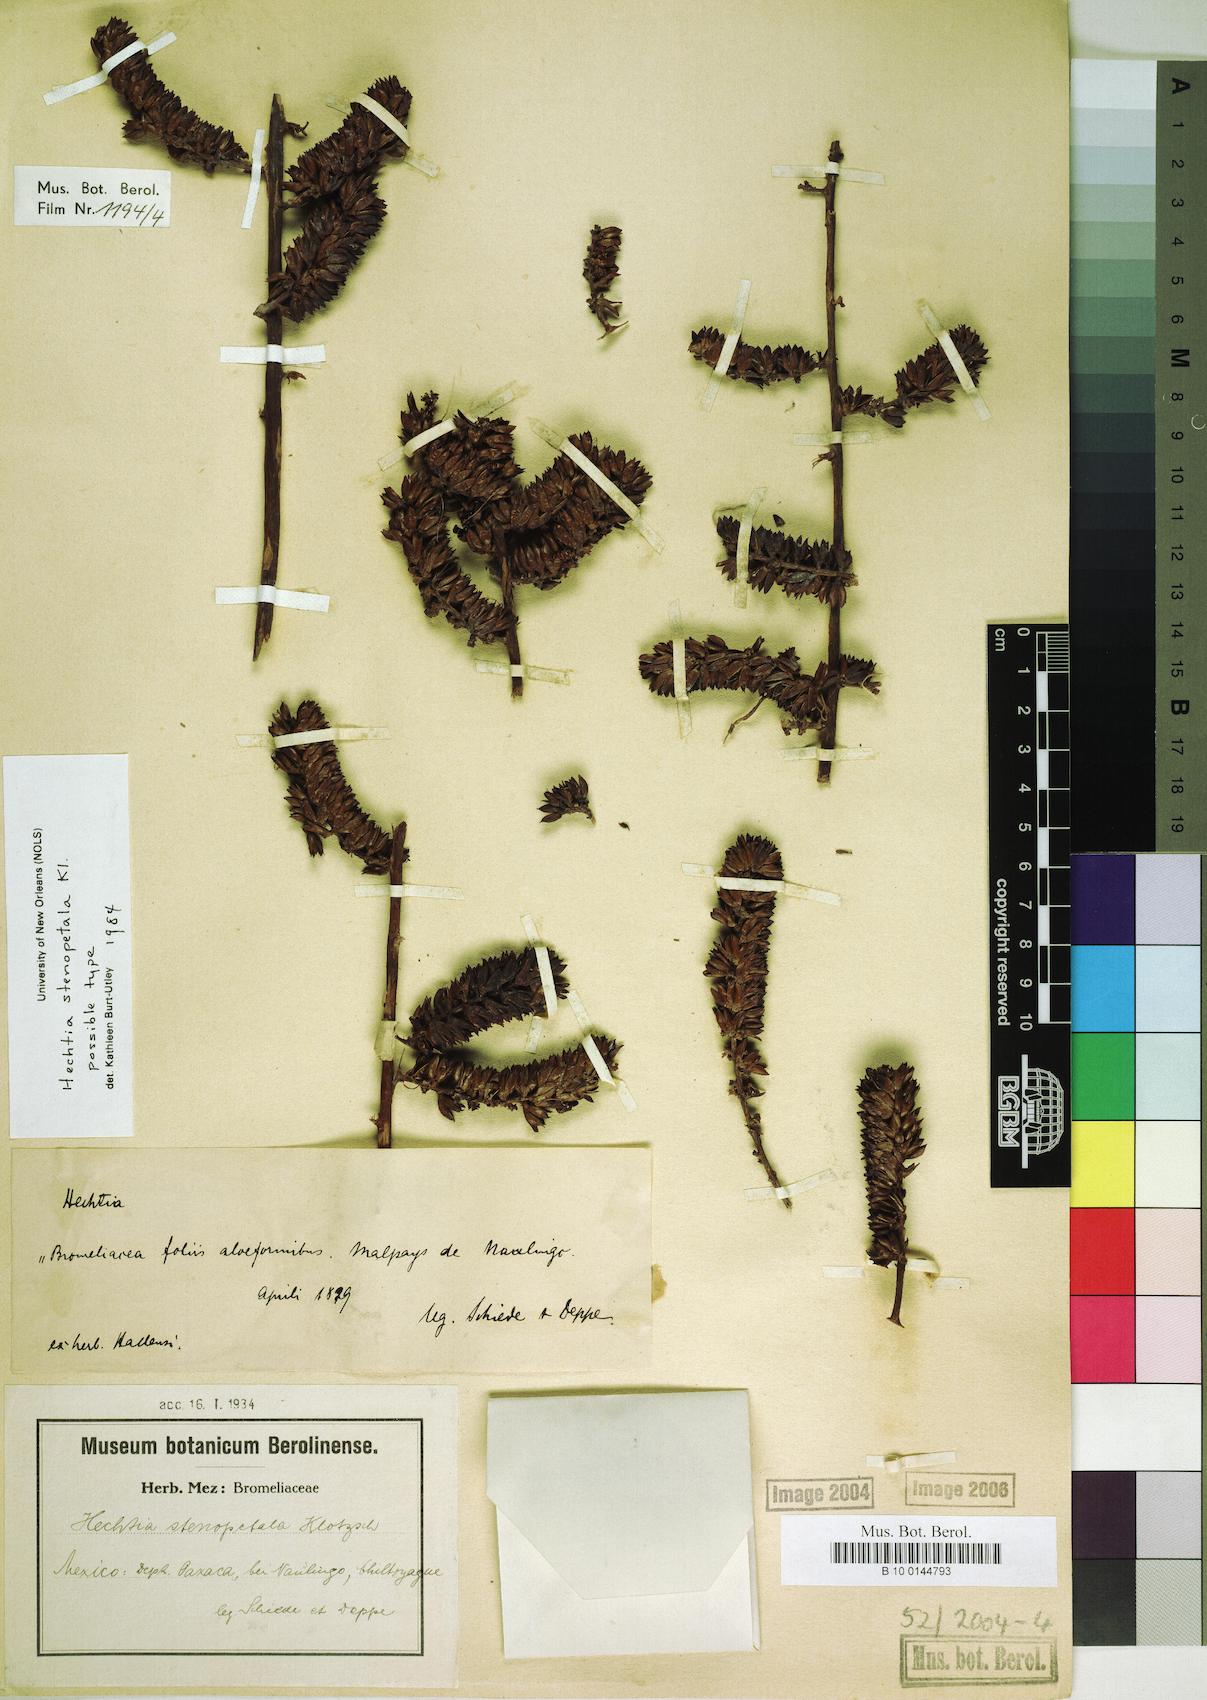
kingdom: Plantae
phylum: Tracheophyta
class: Liliopsida
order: Poales
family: Bromeliaceae
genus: Hechtia
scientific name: Hechtia stenopetala
